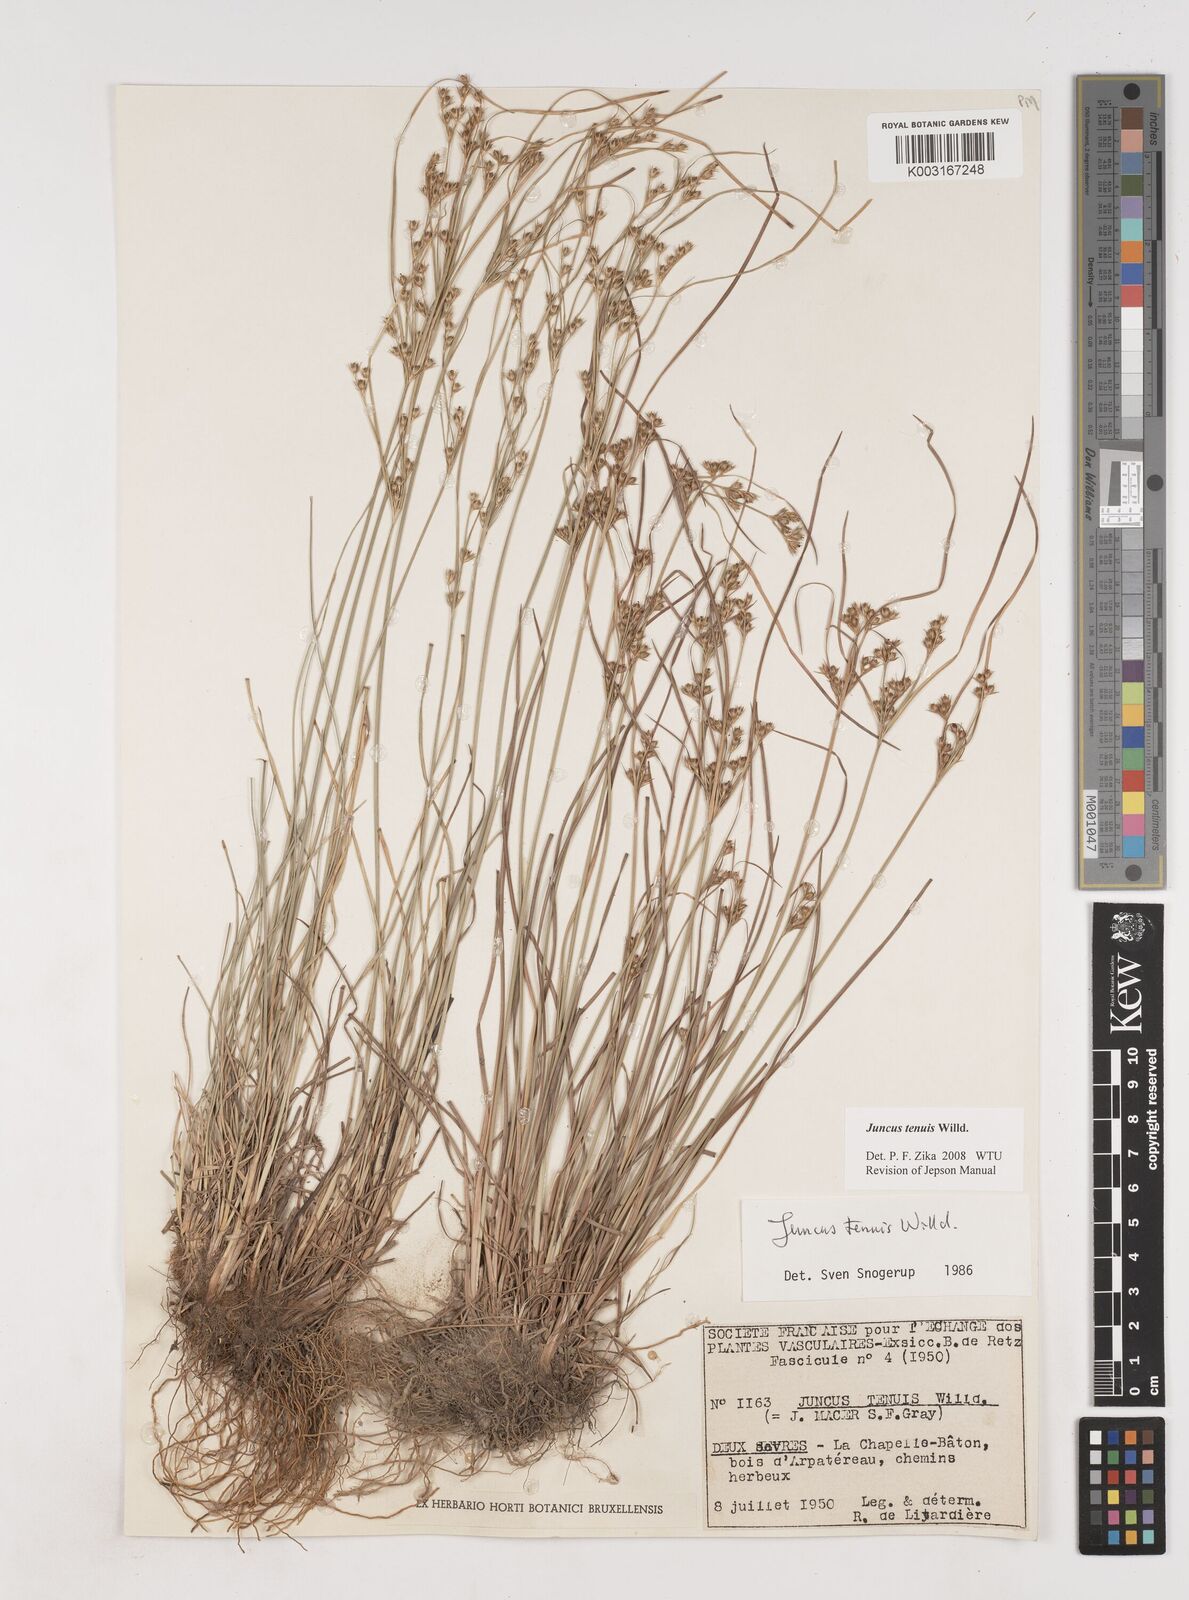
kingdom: Plantae
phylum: Tracheophyta
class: Liliopsida
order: Poales
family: Juncaceae
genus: Juncus
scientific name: Juncus tenuis
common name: Slender rush
